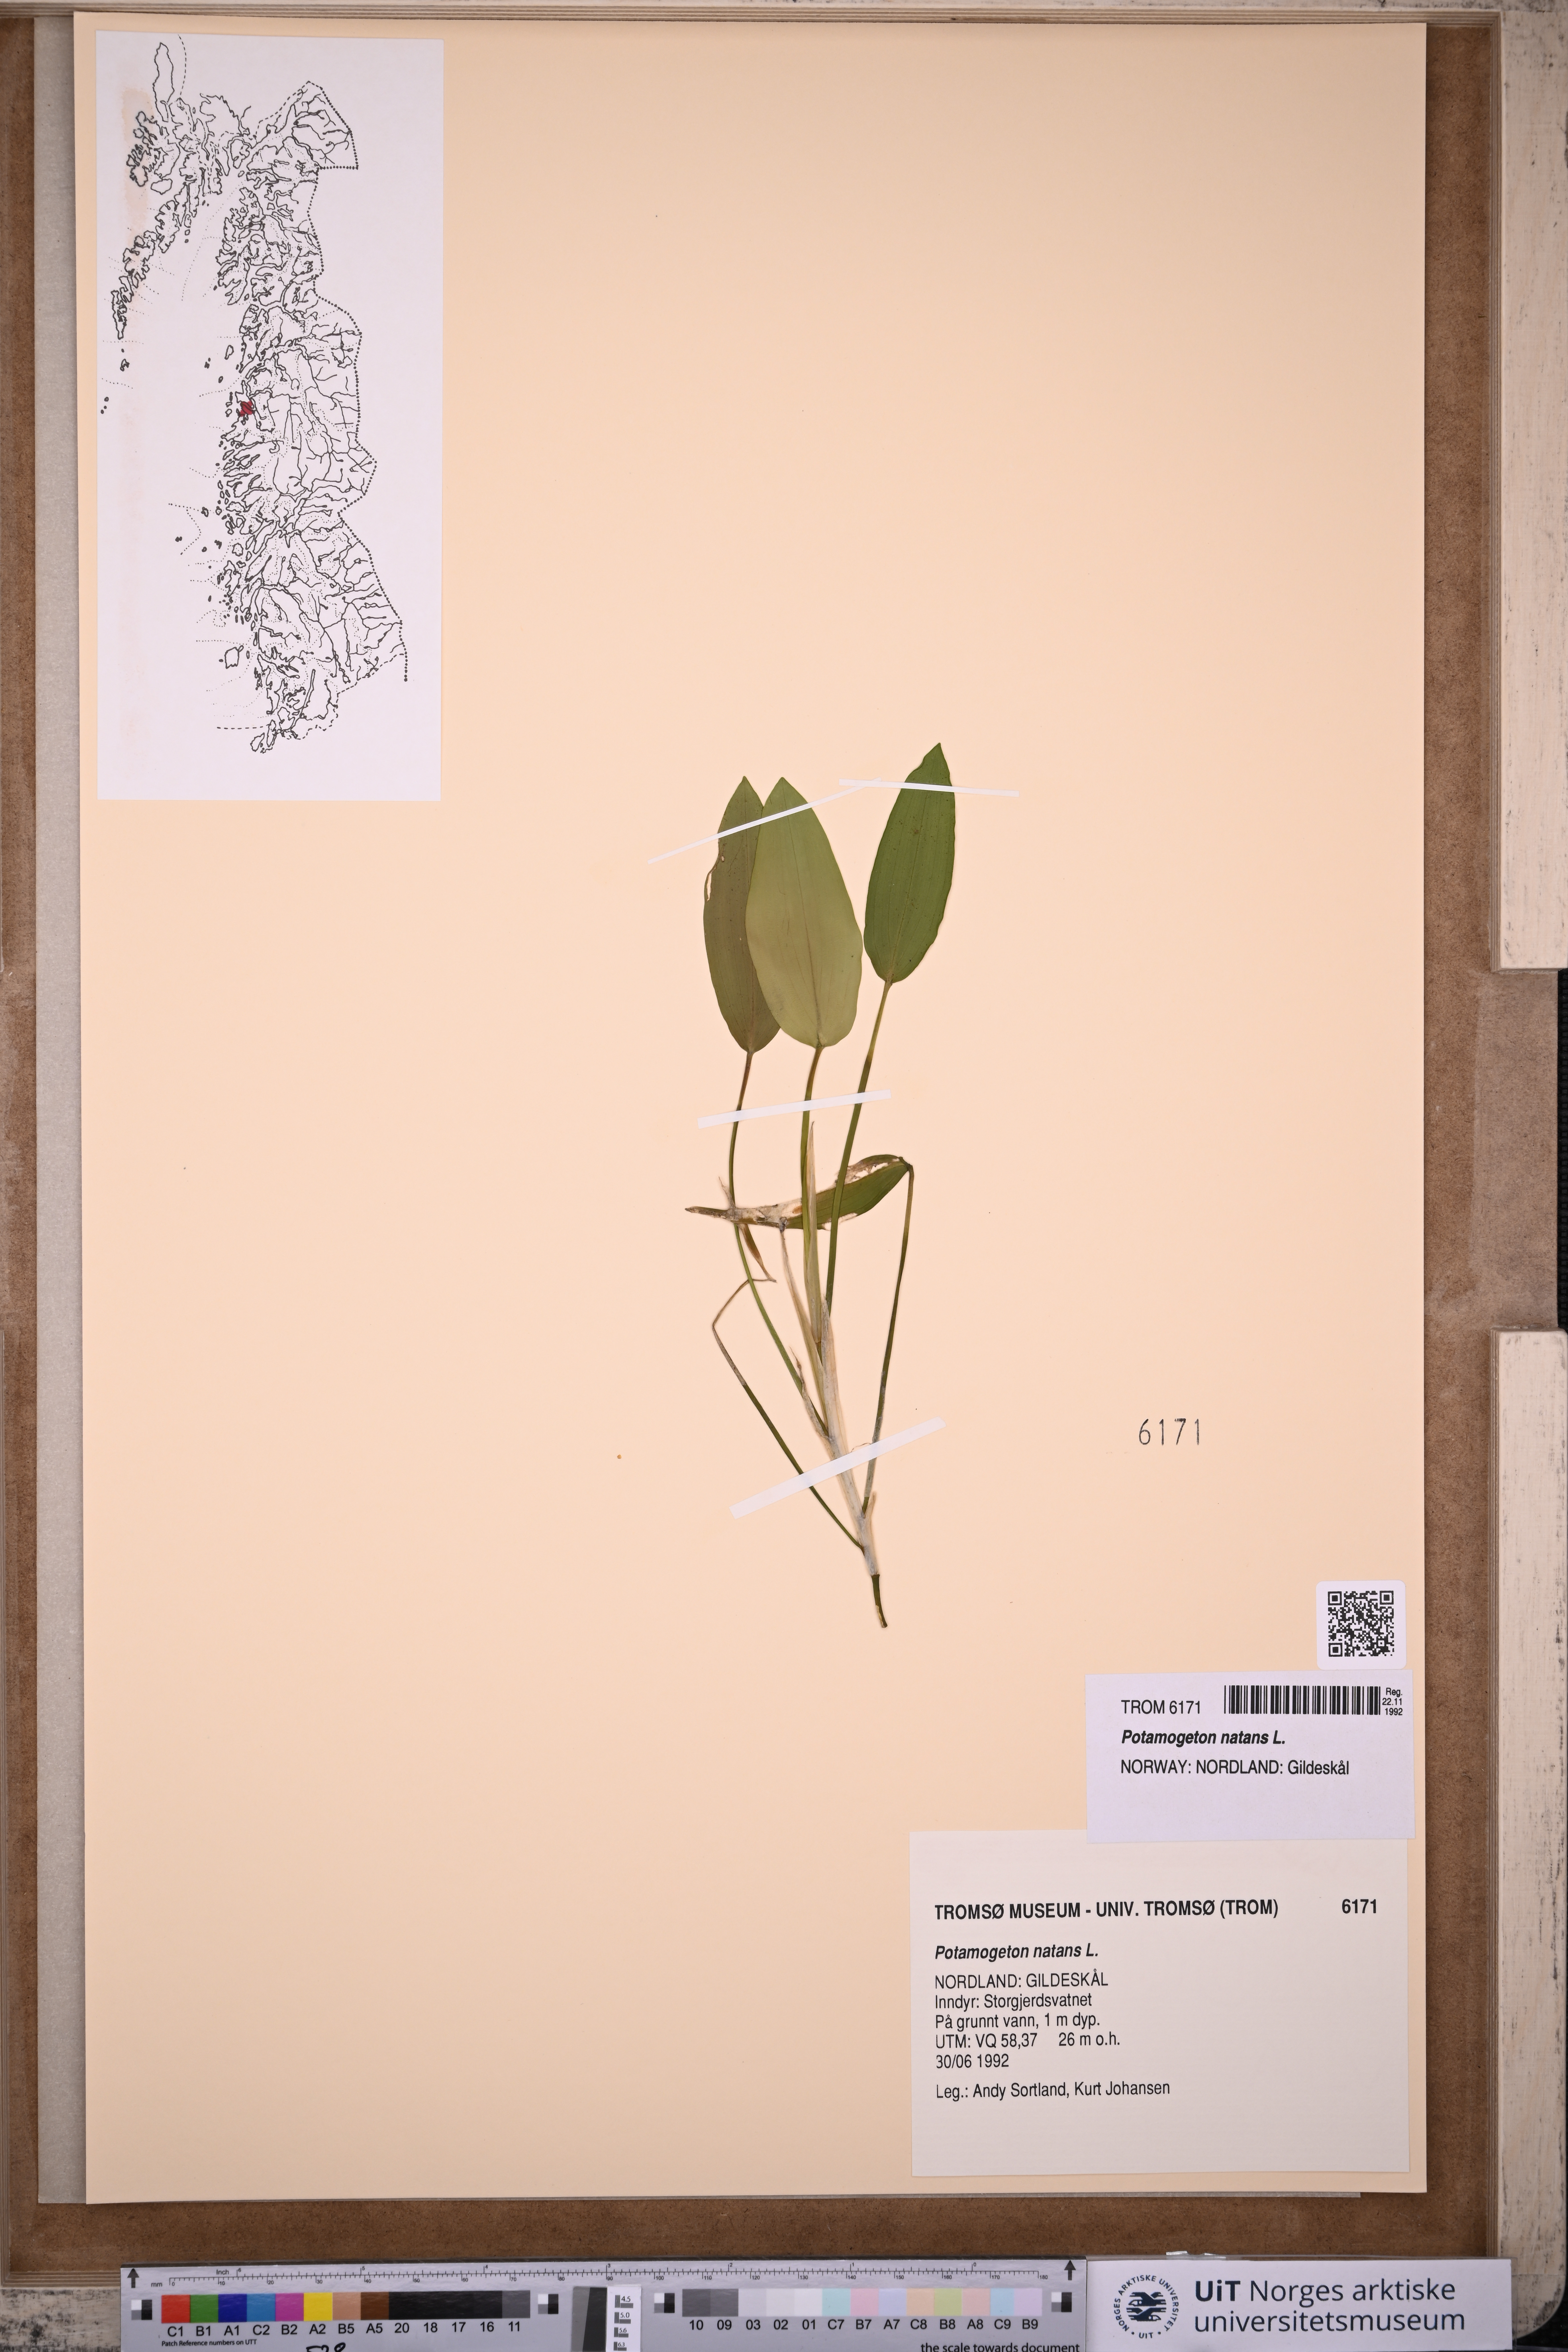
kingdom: Plantae
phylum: Tracheophyta
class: Liliopsida
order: Alismatales
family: Potamogetonaceae
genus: Potamogeton
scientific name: Potamogeton natans
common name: Broad-leaved pondweed
